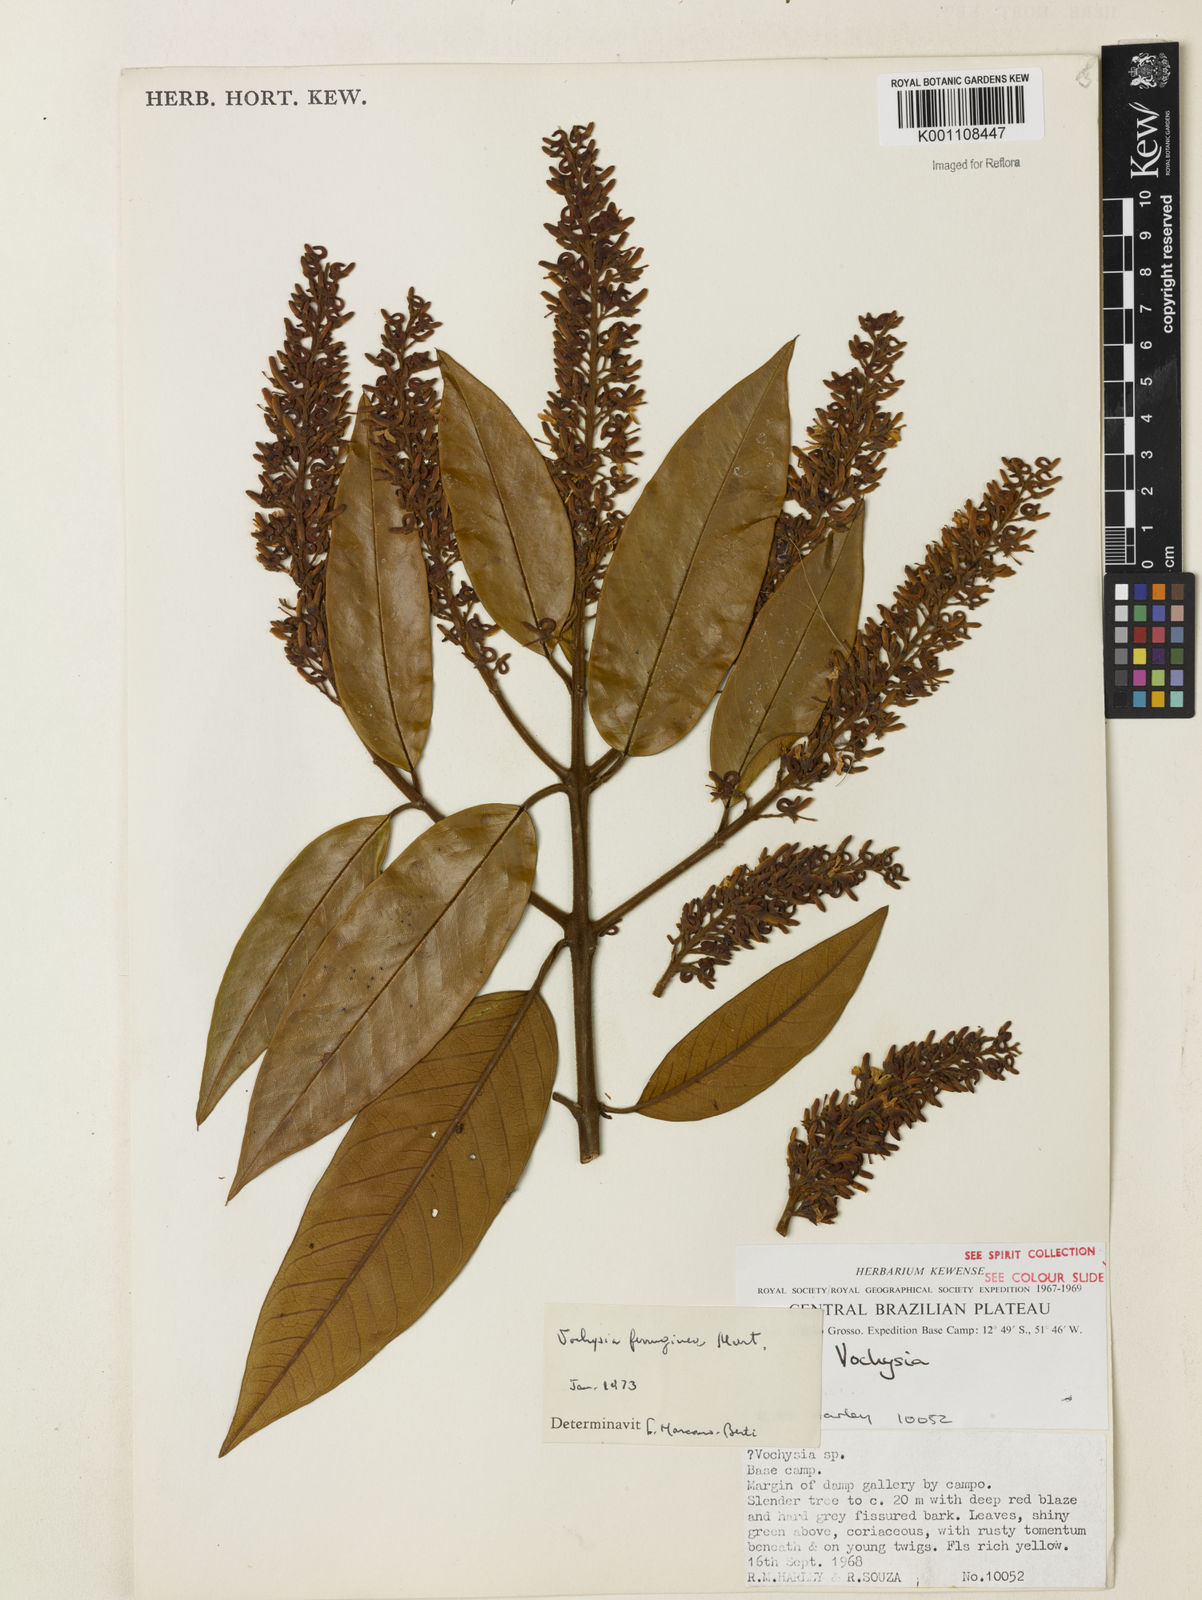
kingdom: Plantae
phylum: Tracheophyta
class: Magnoliopsida
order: Myrtales
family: Vochysiaceae
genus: Vochysia
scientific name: Vochysia ferruginea
